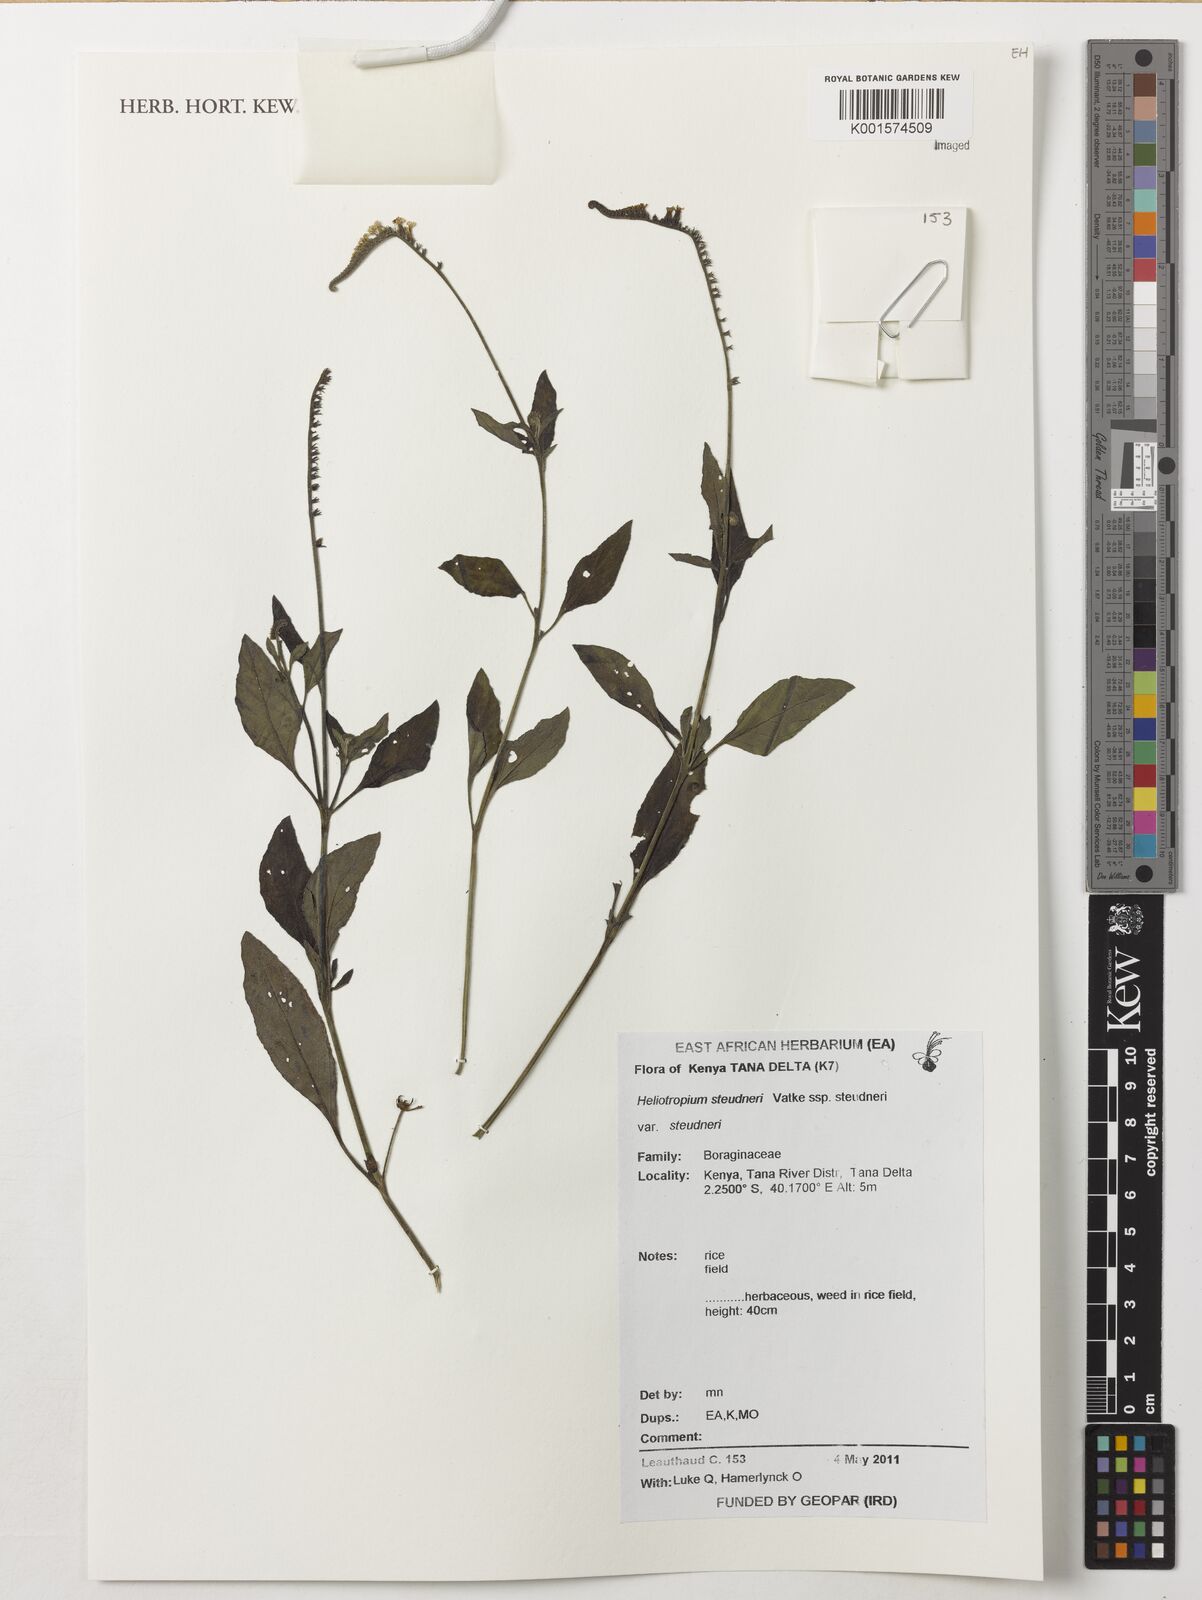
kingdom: Plantae
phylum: Tracheophyta
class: Magnoliopsida
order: Boraginales
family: Heliotropiaceae
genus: Heliotropium
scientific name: Heliotropium steudneri
